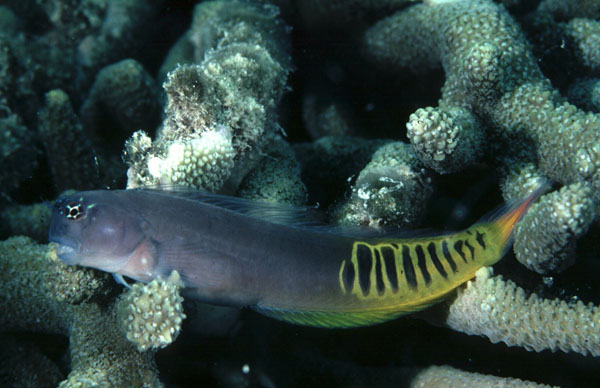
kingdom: Animalia
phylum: Chordata
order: Perciformes
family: Blenniidae
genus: Ecsenius
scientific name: Ecsenius pulcher
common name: Gulf blenny
